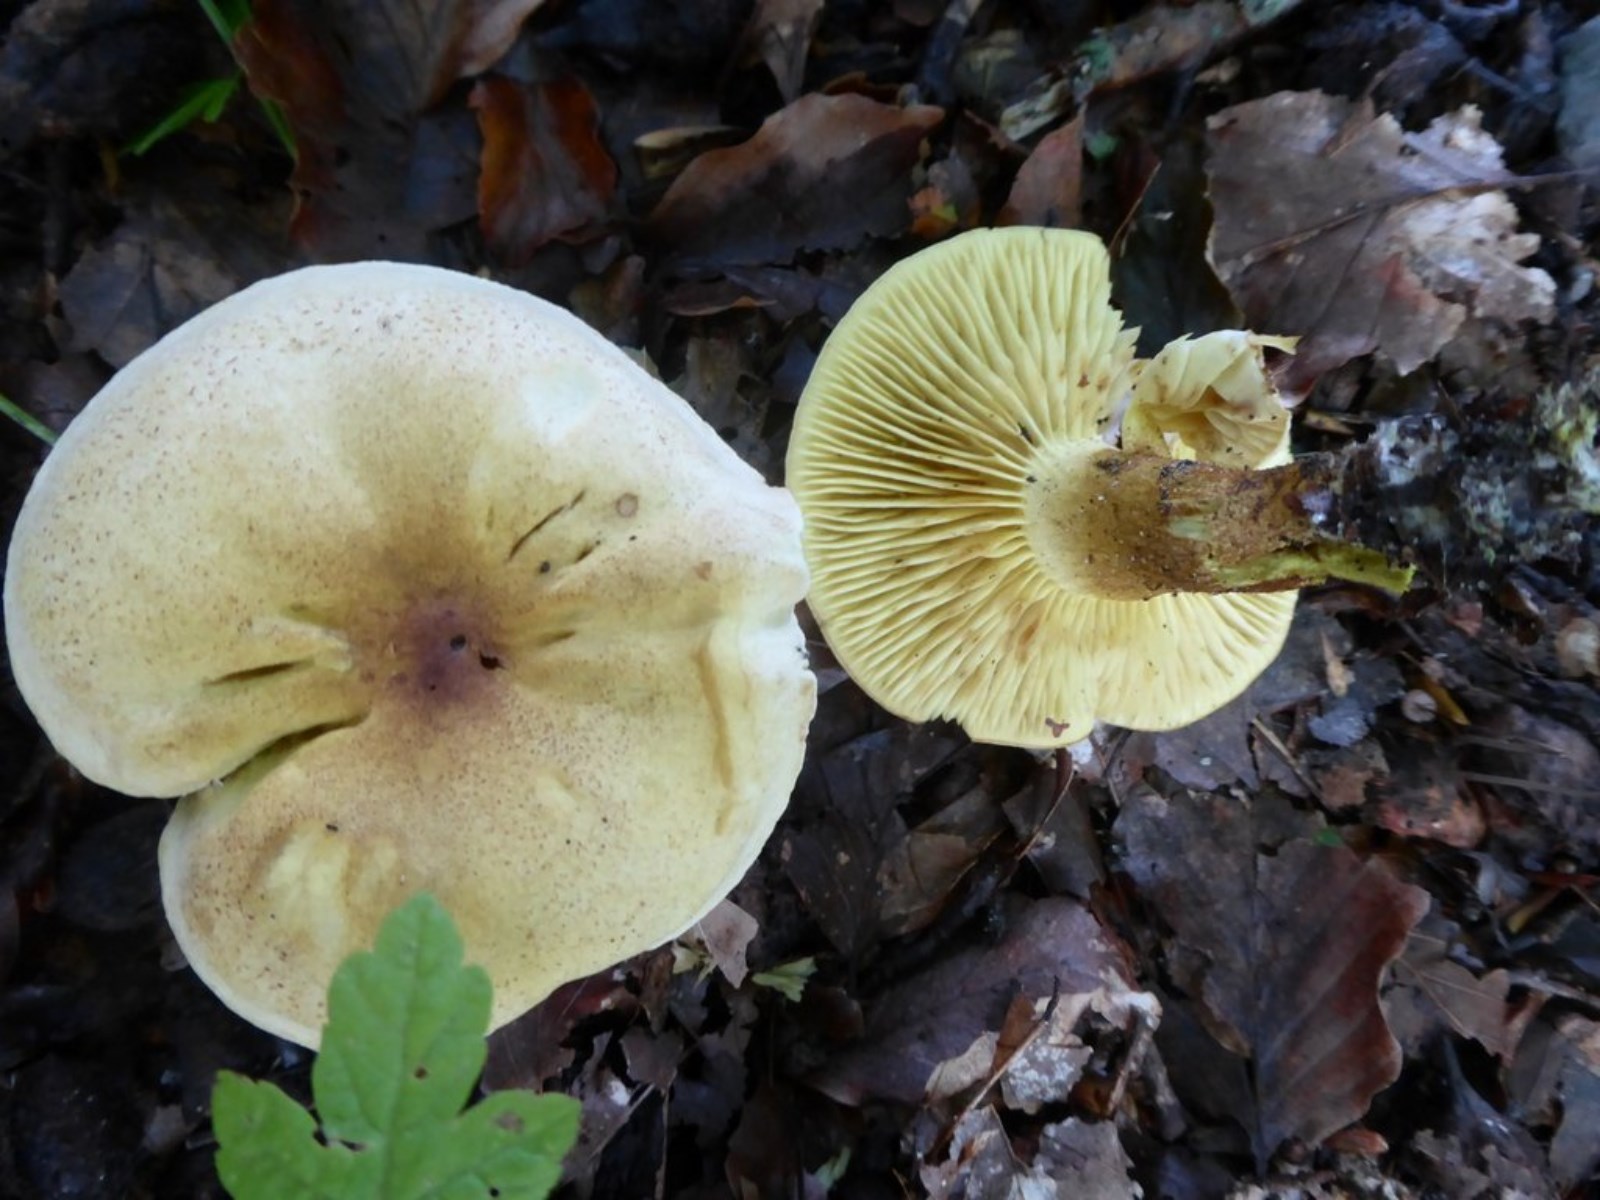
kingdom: Fungi
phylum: Basidiomycota
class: Agaricomycetes
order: Agaricales
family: Tricholomataceae
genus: Tricholoma
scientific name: Tricholoma sulphureum
